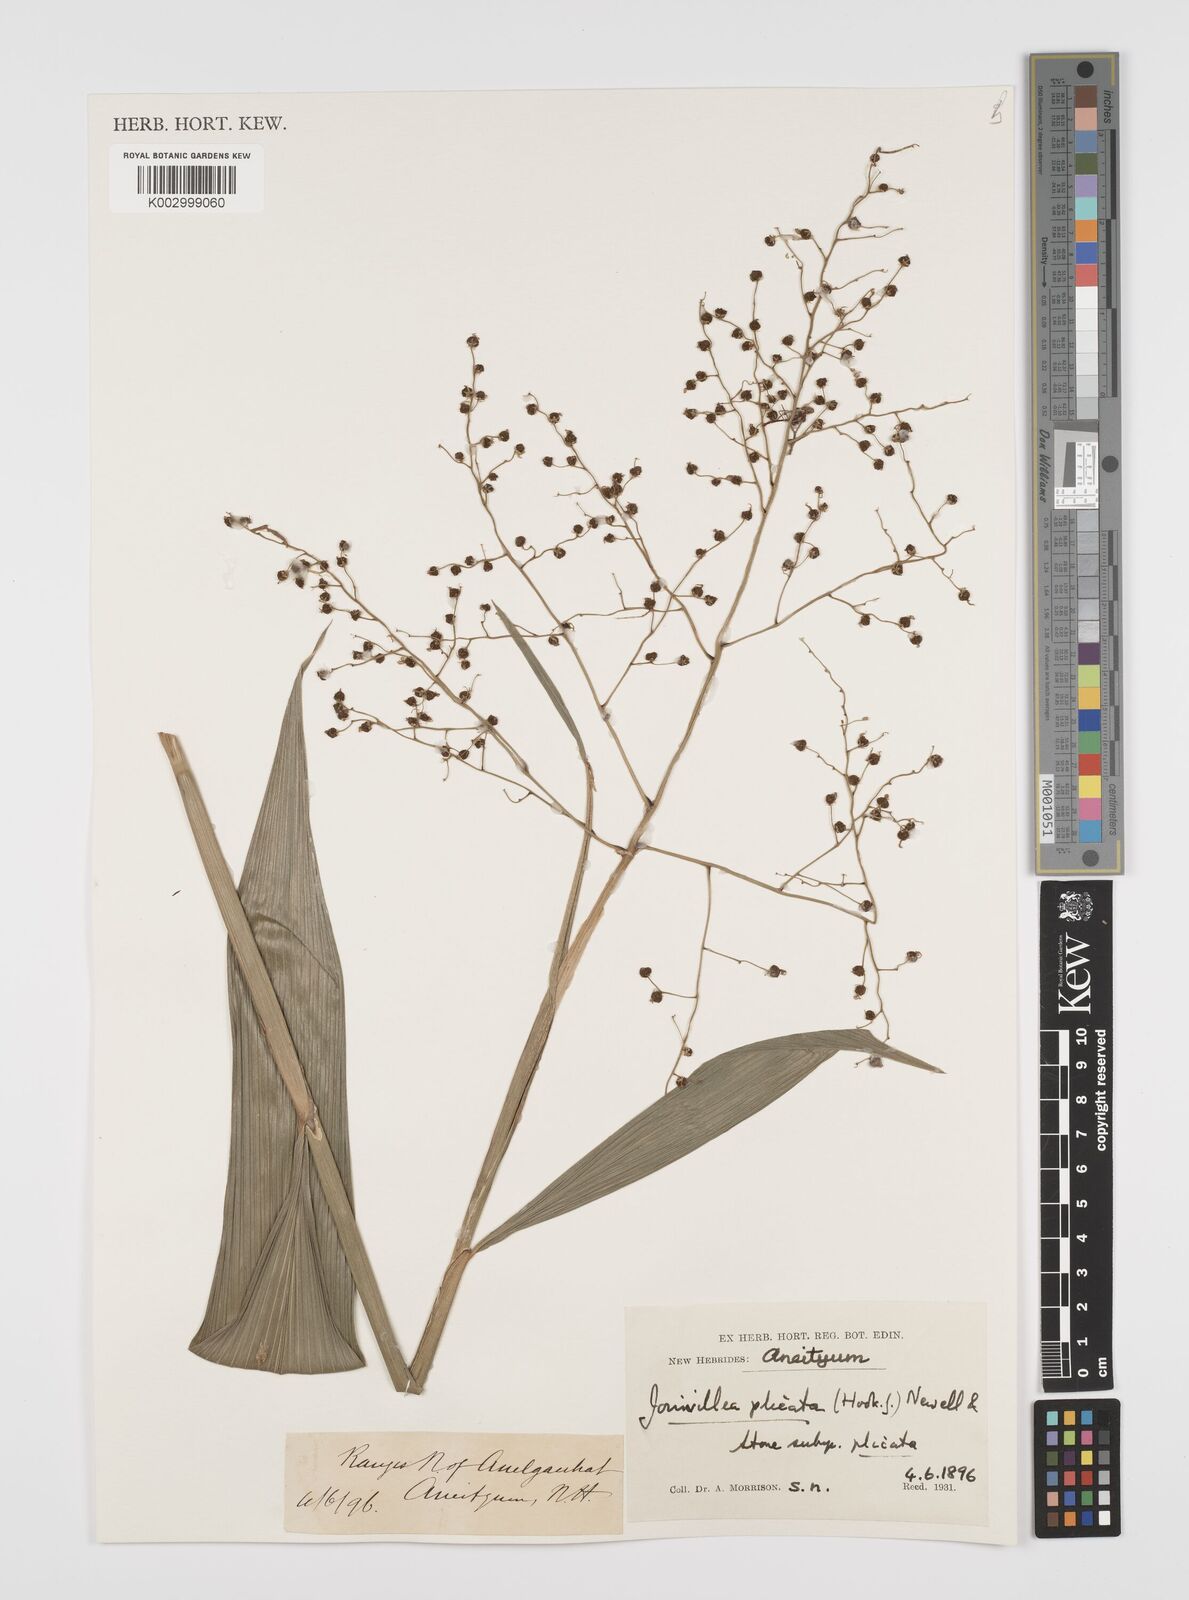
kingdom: Plantae
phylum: Tracheophyta
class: Liliopsida
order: Poales
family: Joinvilleaceae
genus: Joinvillea
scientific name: Joinvillea plicata
